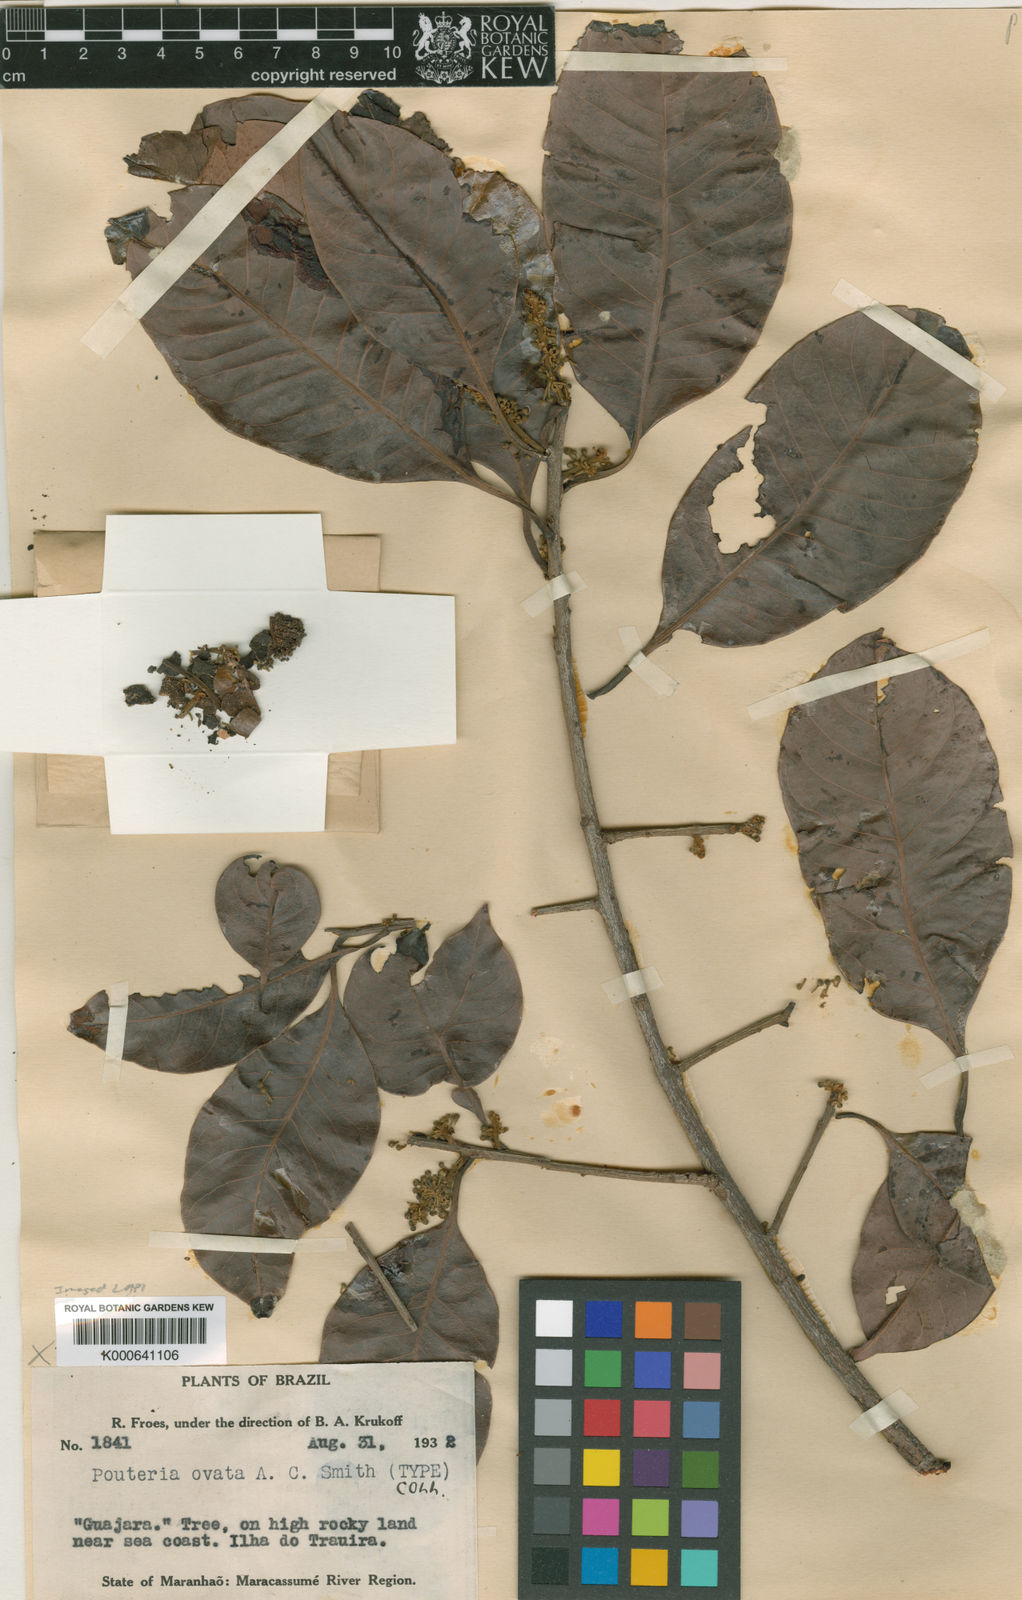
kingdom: Plantae
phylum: Tracheophyta
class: Magnoliopsida
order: Ericales
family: Sapotaceae
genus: Pouteria
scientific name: Pouteria ramiflora
